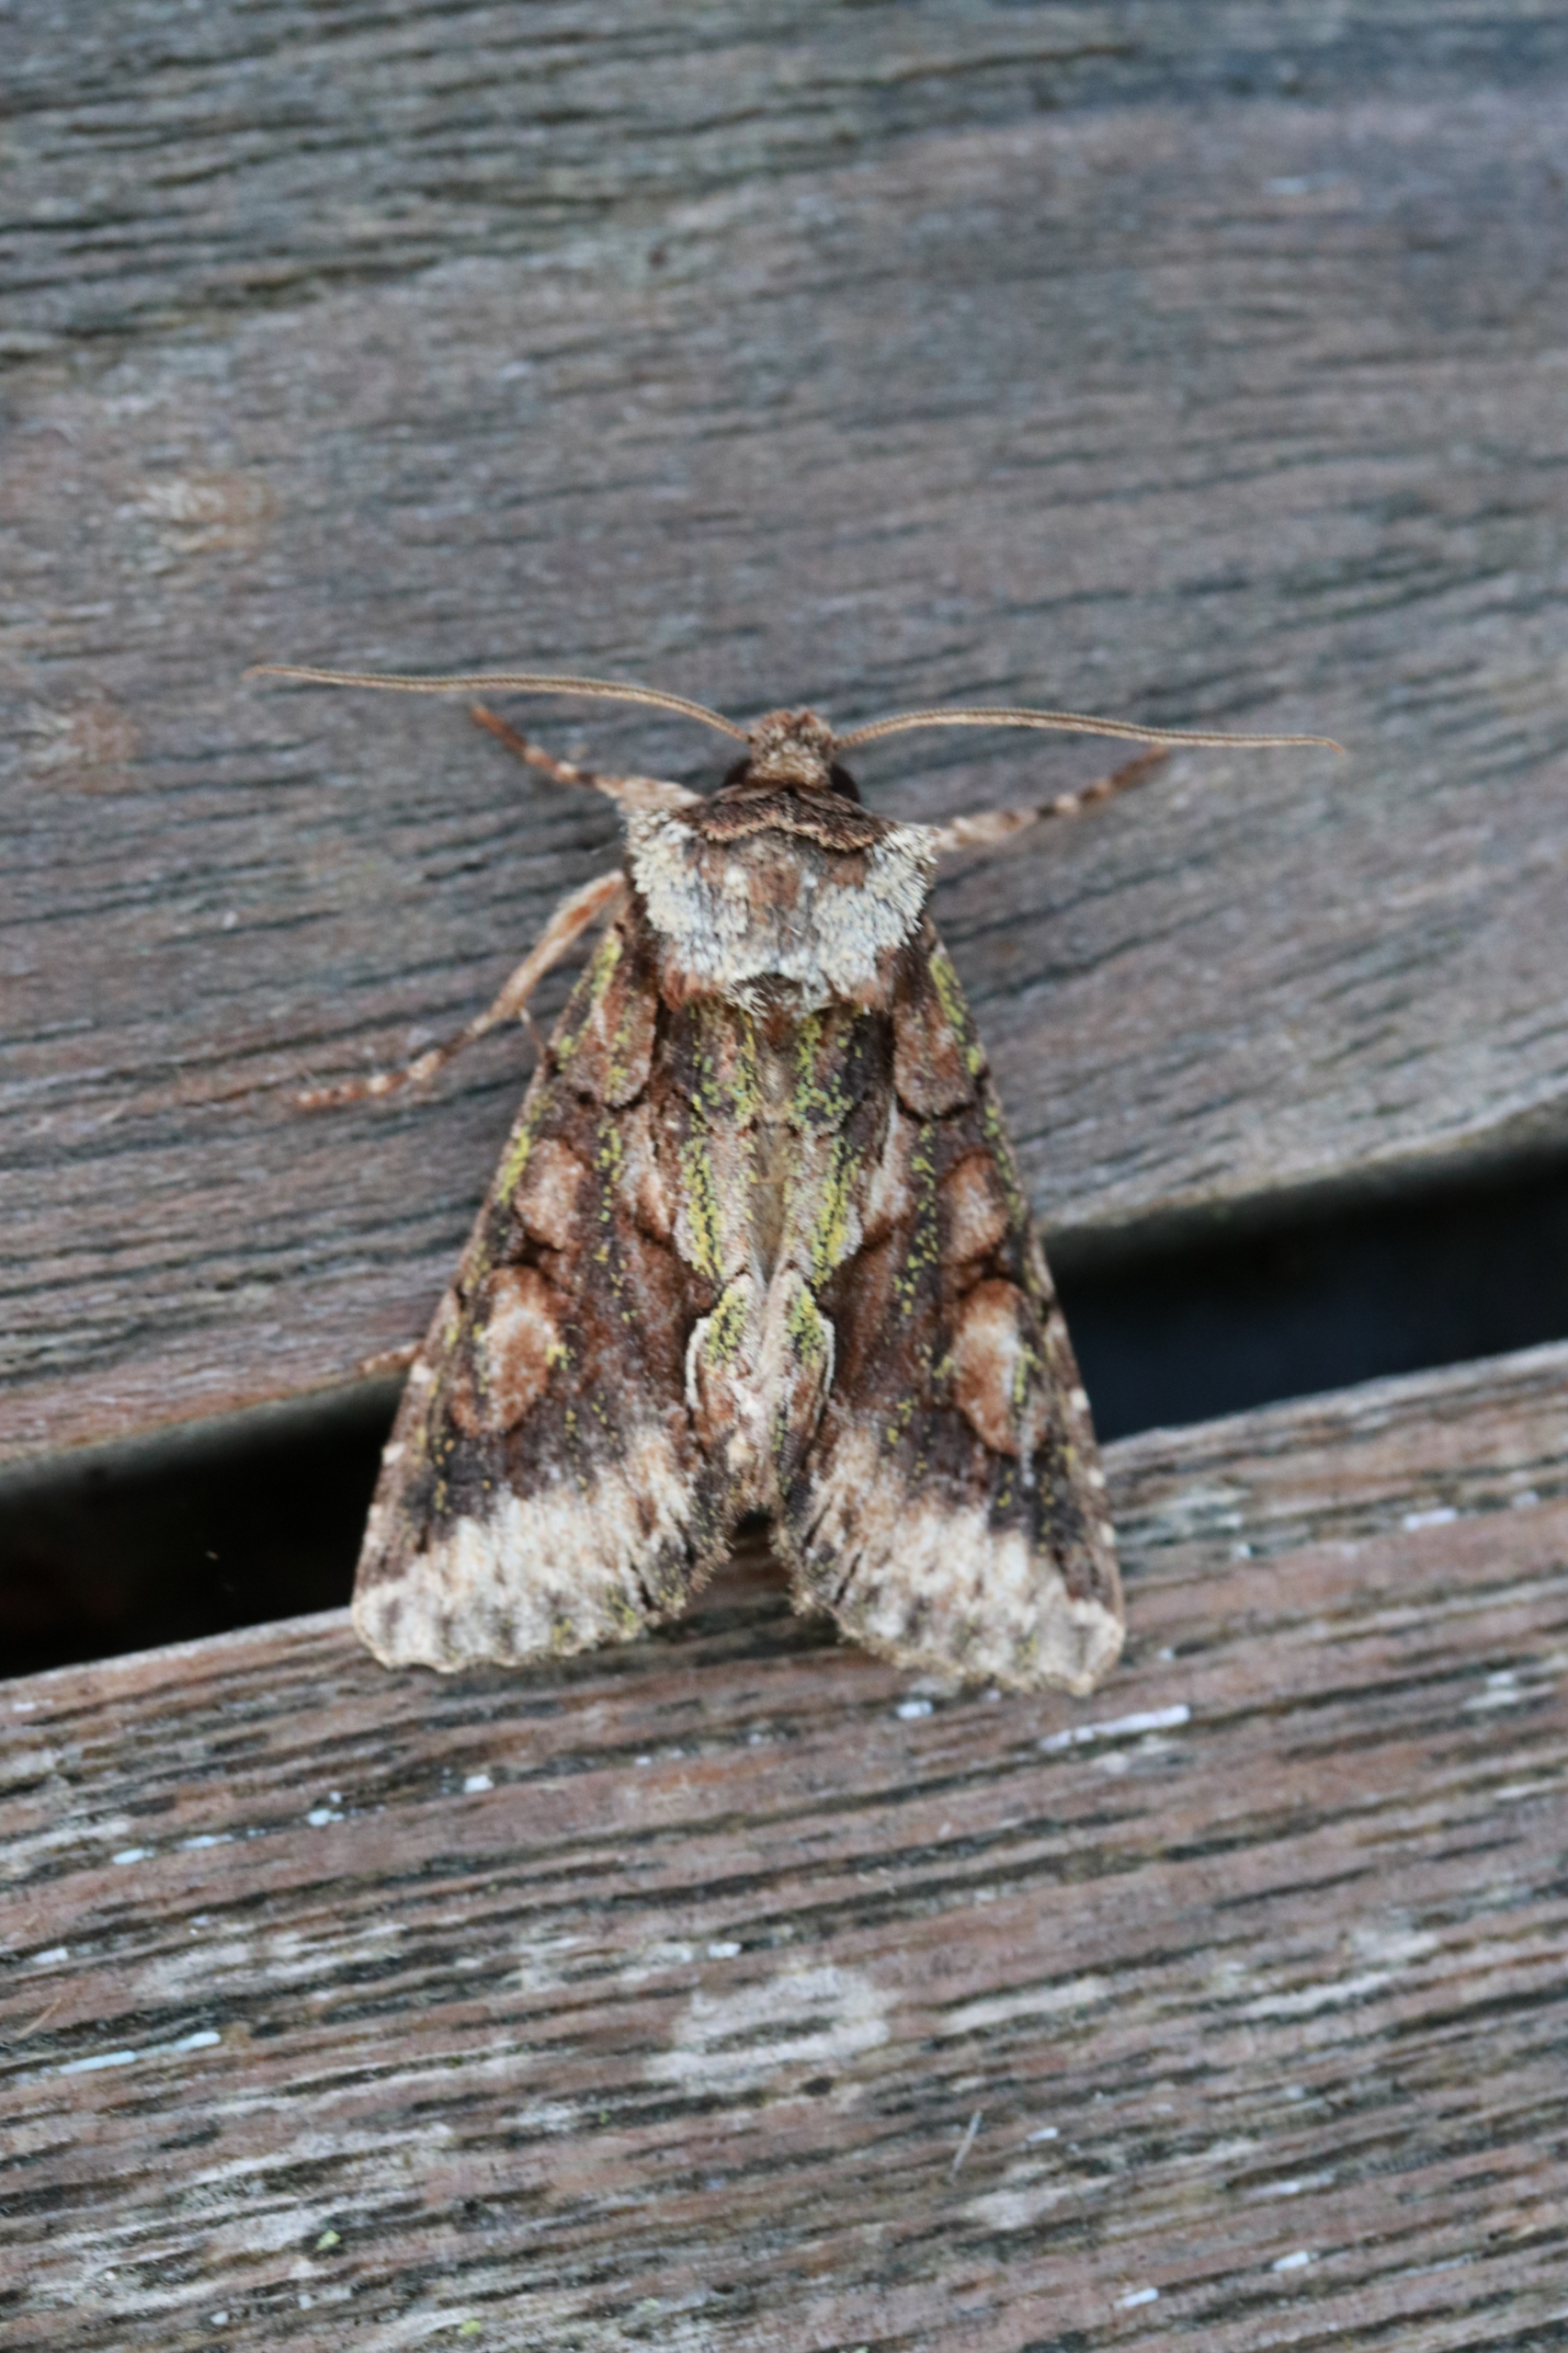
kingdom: Animalia
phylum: Arthropoda
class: Insecta
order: Lepidoptera
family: Noctuidae
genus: Allophyes
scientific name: Allophyes oxyacanthae
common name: Tjørneugle
